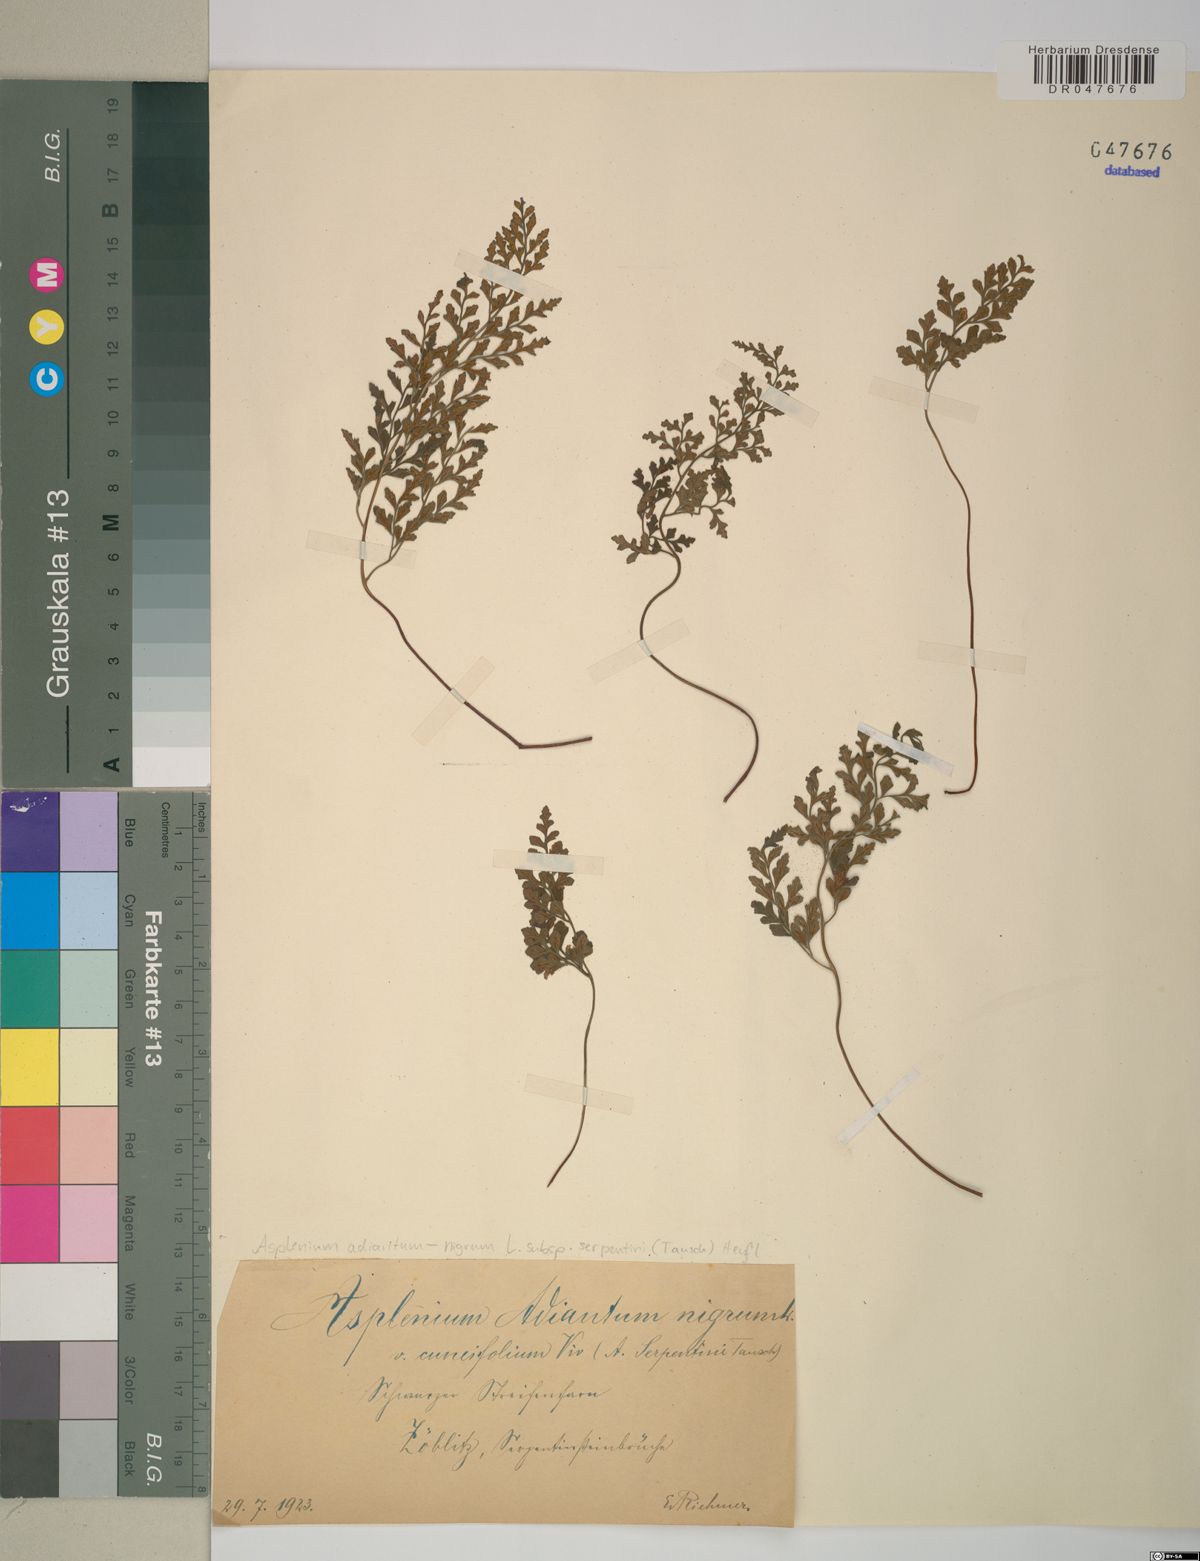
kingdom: Plantae
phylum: Tracheophyta
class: Polypodiopsida
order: Polypodiales
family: Aspleniaceae
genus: Asplenium
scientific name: Asplenium cuneifolium
